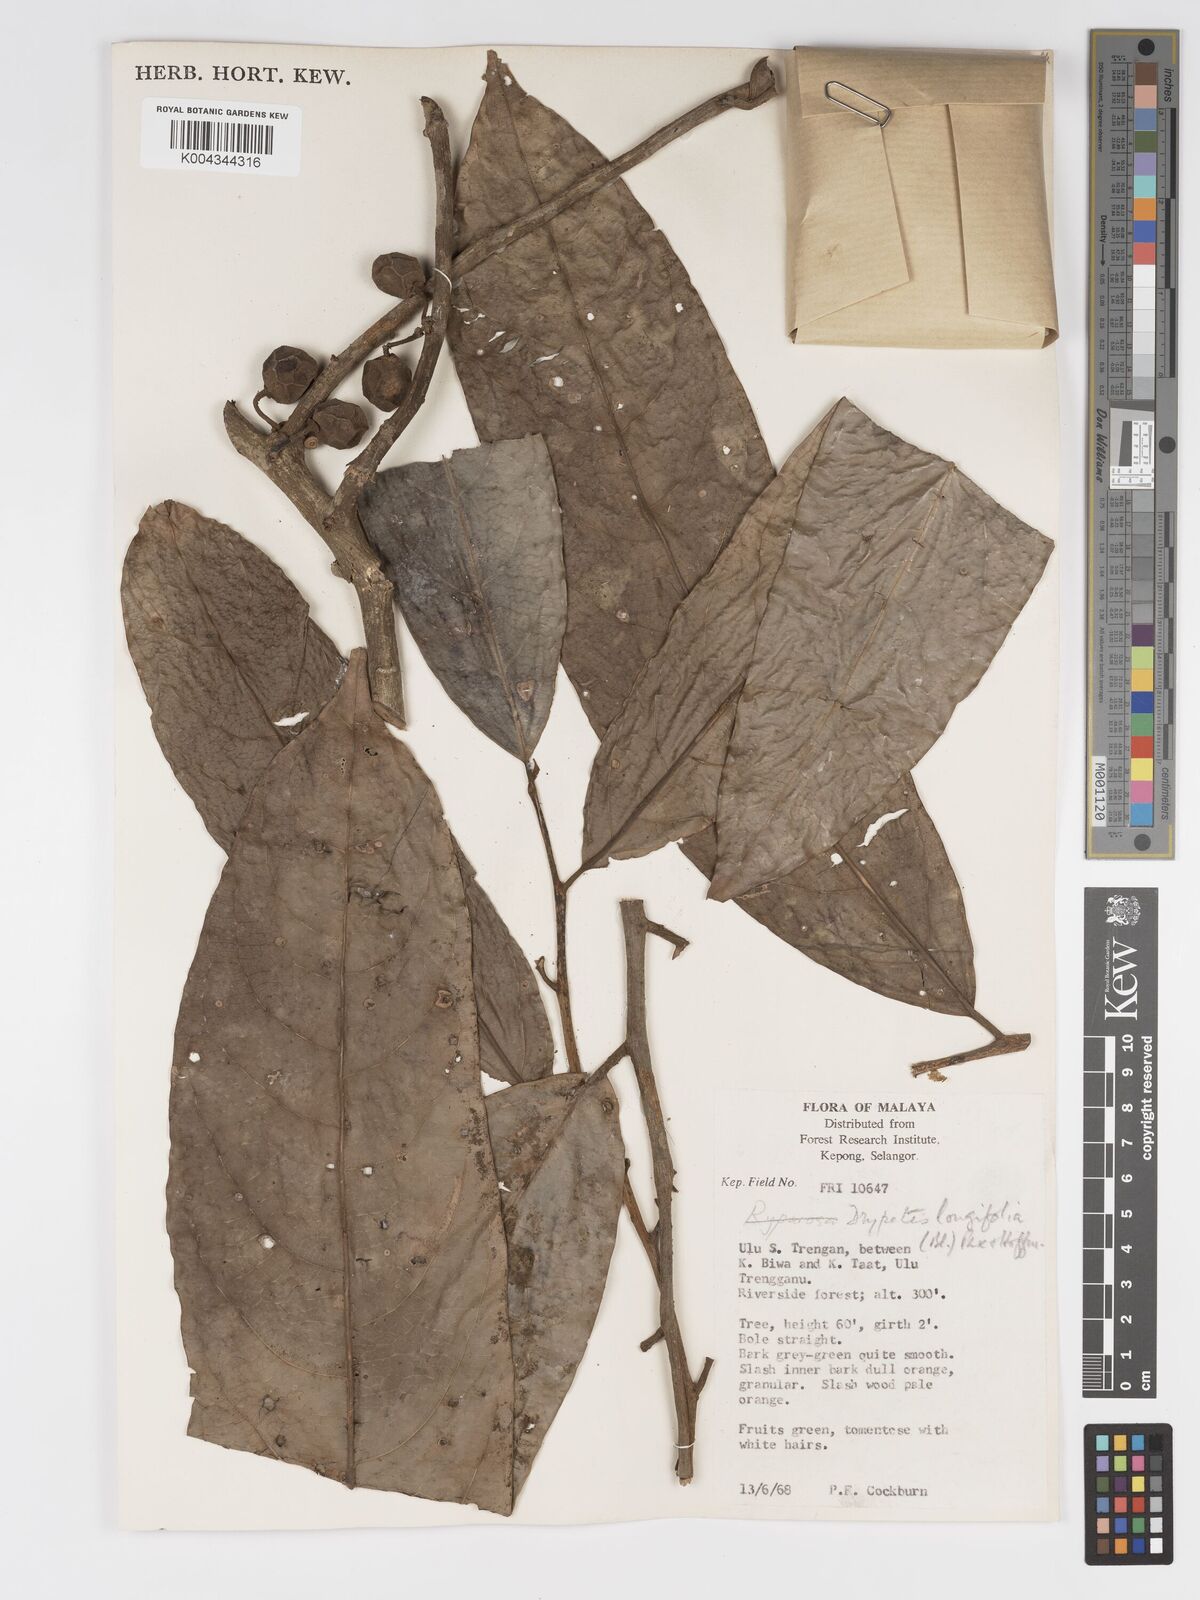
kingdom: Plantae
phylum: Tracheophyta
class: Magnoliopsida
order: Malpighiales
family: Putranjivaceae
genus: Drypetes
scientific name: Drypetes longifolia
